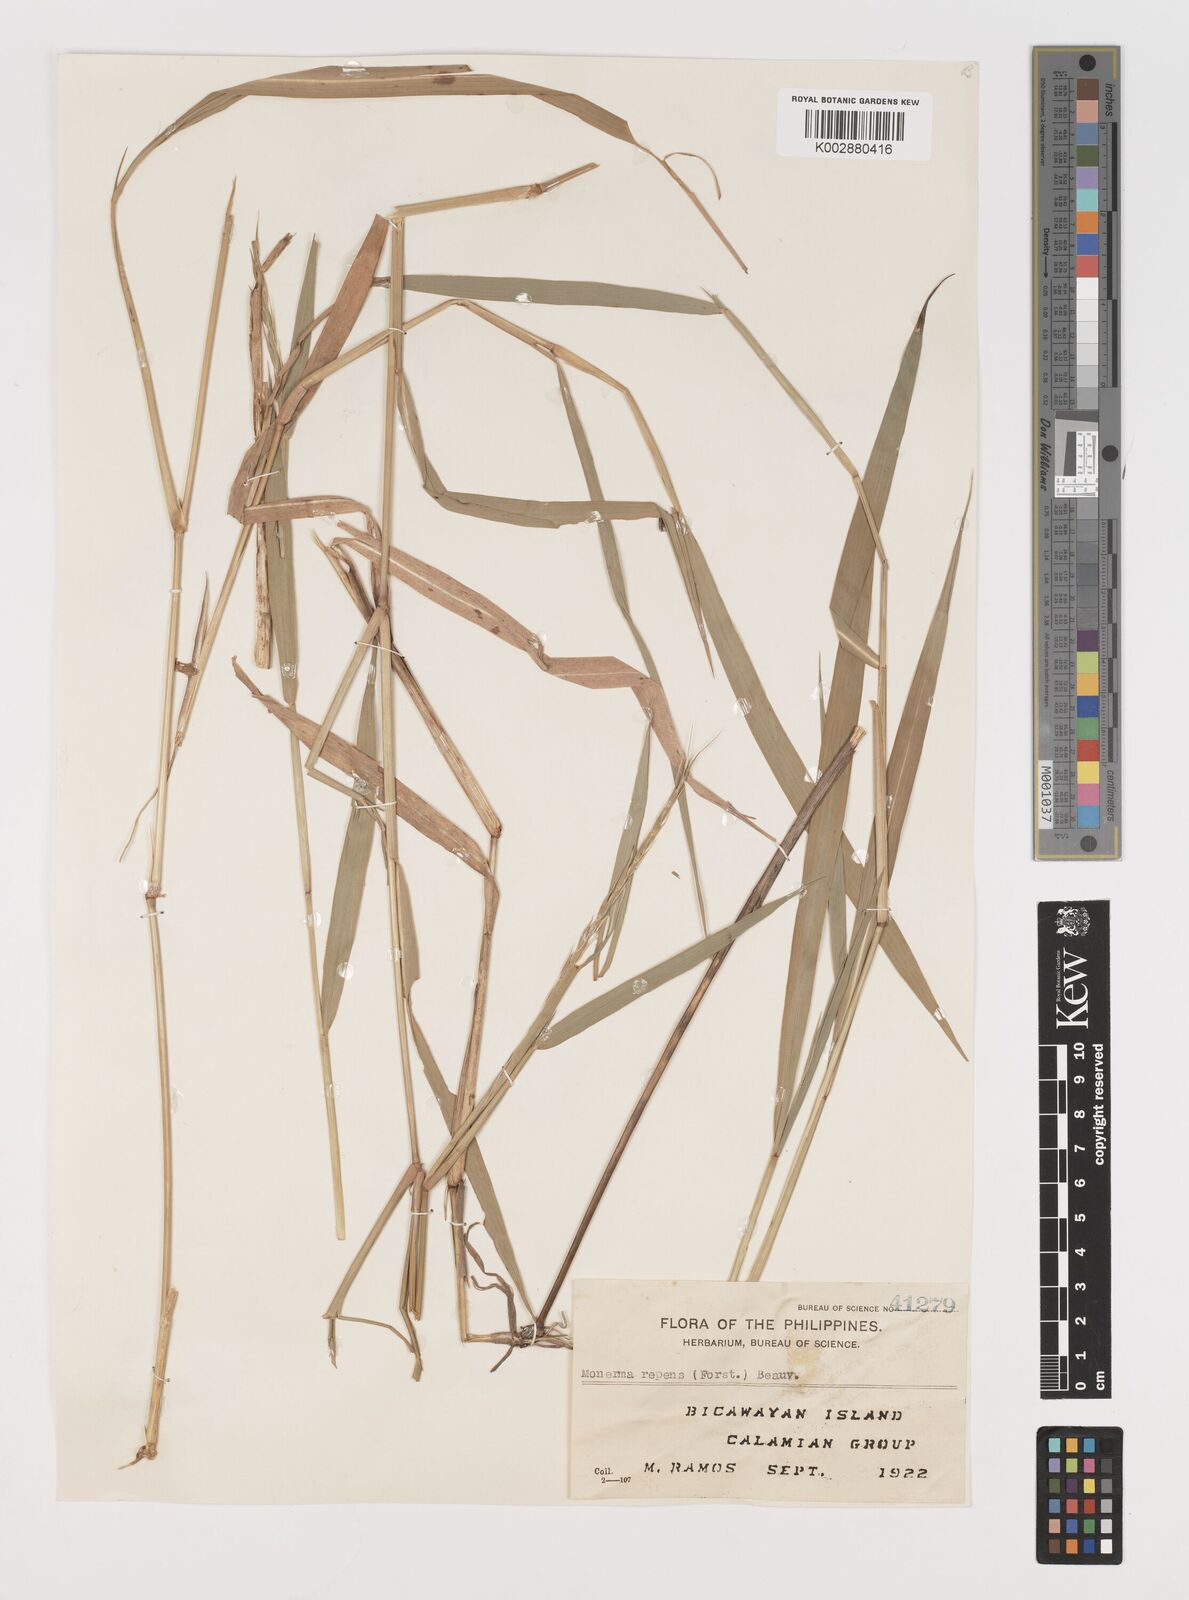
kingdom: Plantae
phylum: Tracheophyta
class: Liliopsida
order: Poales
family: Poaceae
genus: Lepturus
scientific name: Lepturus repens
